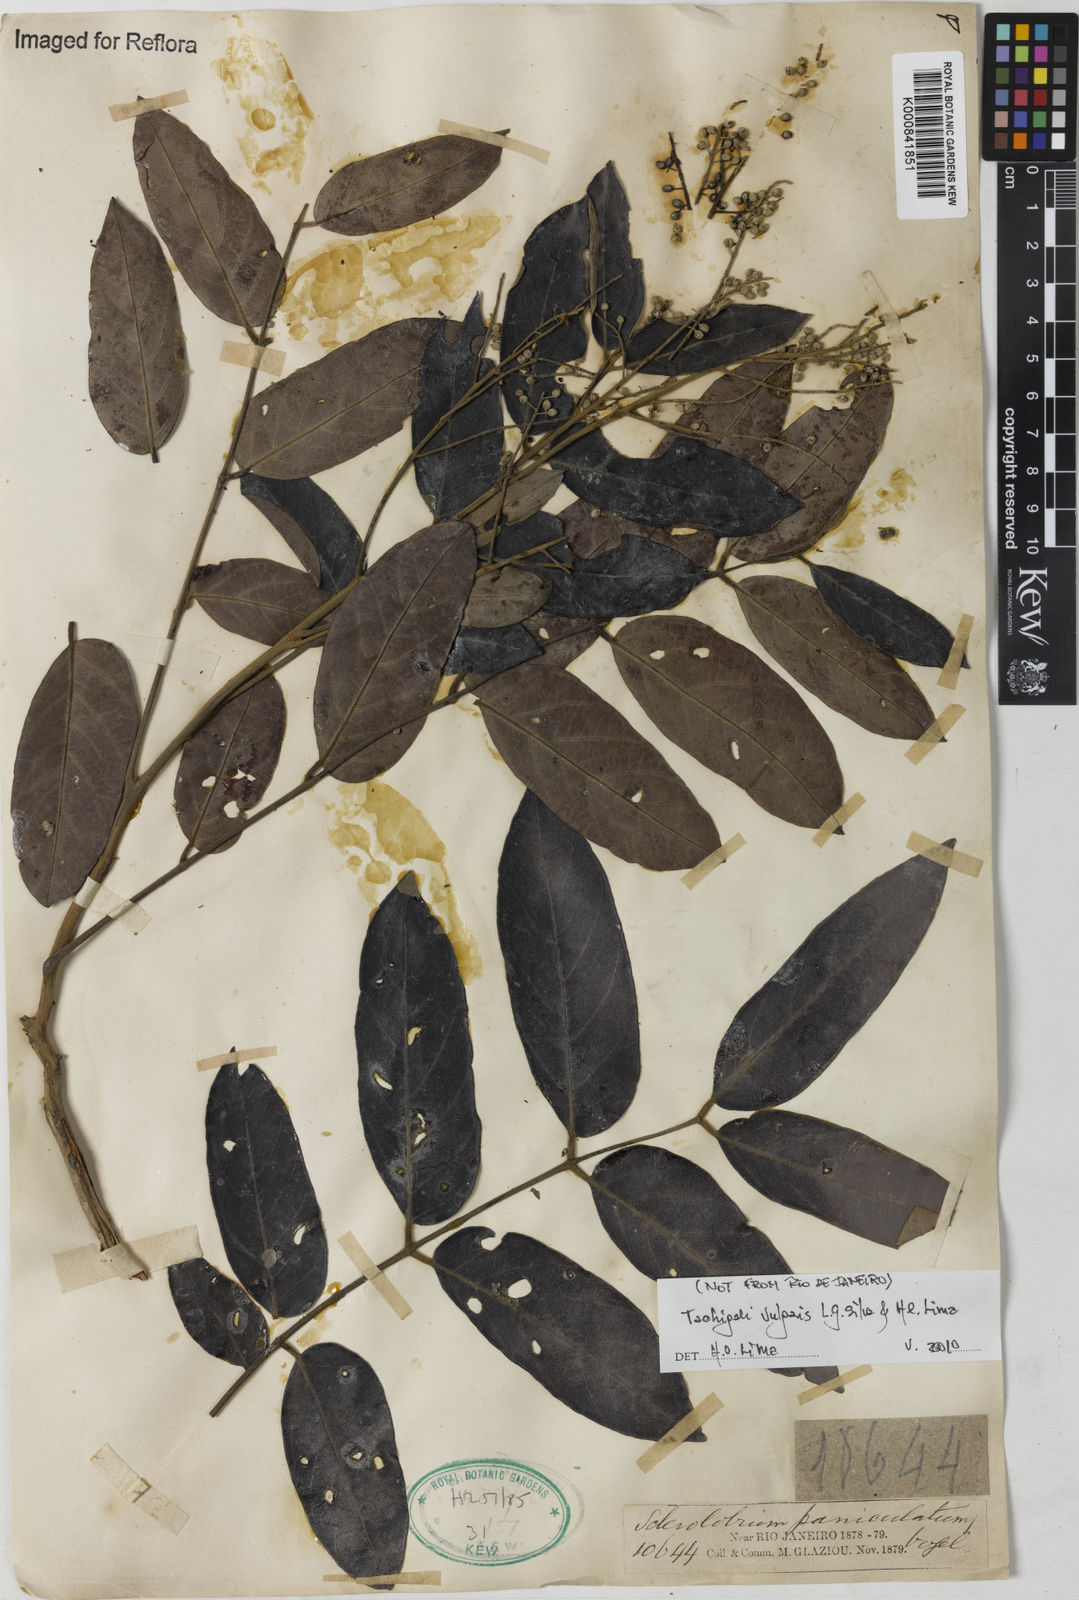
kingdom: Plantae
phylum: Tracheophyta
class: Magnoliopsida
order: Fabales
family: Fabaceae
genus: Tachigali
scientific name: Tachigali vulgaris
